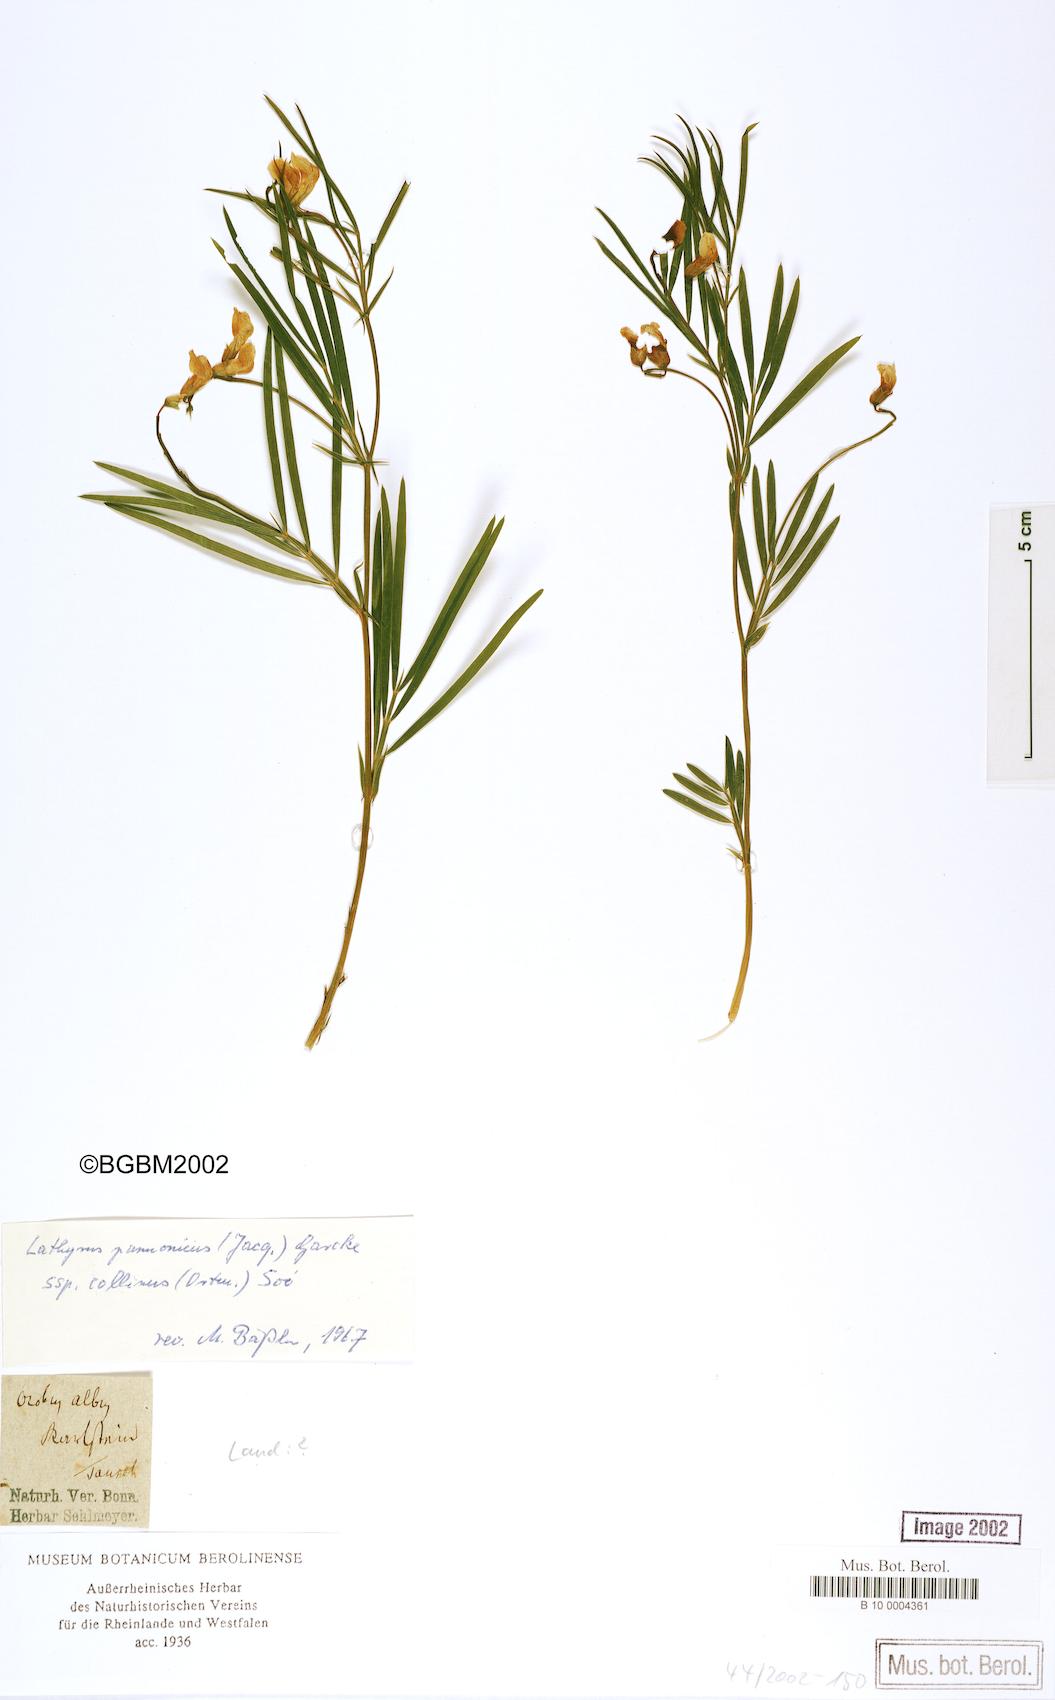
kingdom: Plantae
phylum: Tracheophyta
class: Magnoliopsida
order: Fabales
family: Fabaceae
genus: Lathyrus
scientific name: Lathyrus pannonicus
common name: Pea
